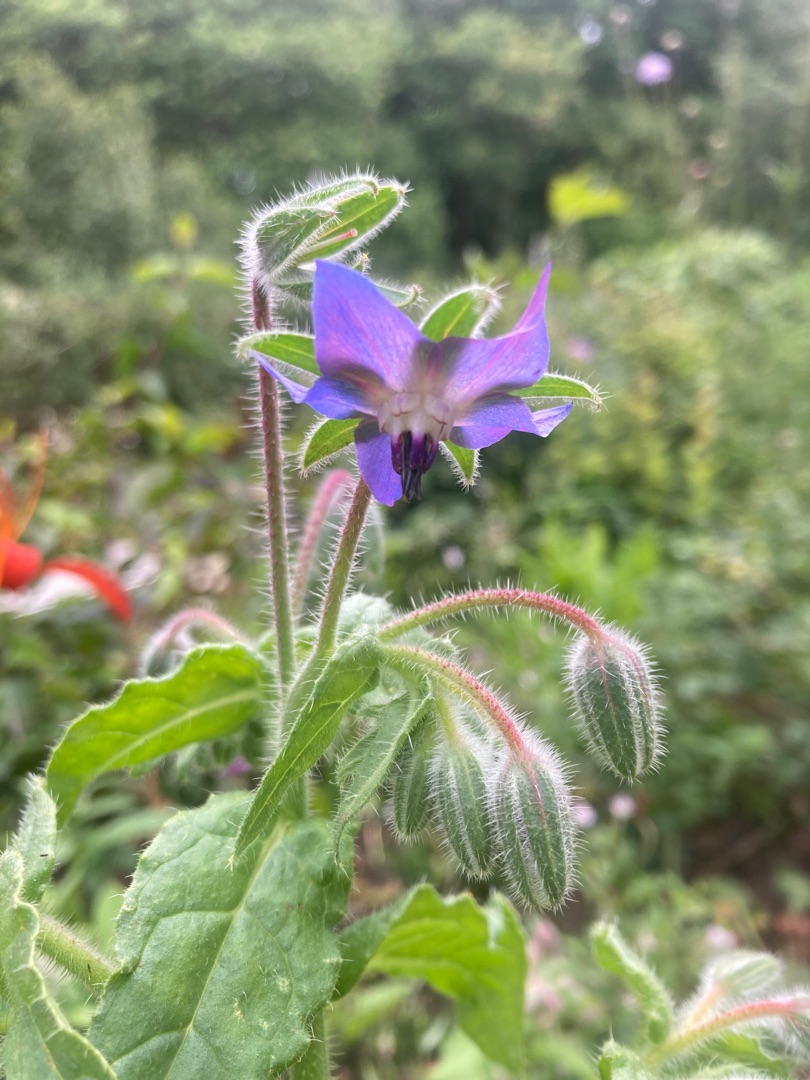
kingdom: Plantae
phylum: Tracheophyta
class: Magnoliopsida
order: Boraginales
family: Boraginaceae
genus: Borago
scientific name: Borago officinalis
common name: Hjulkrone
